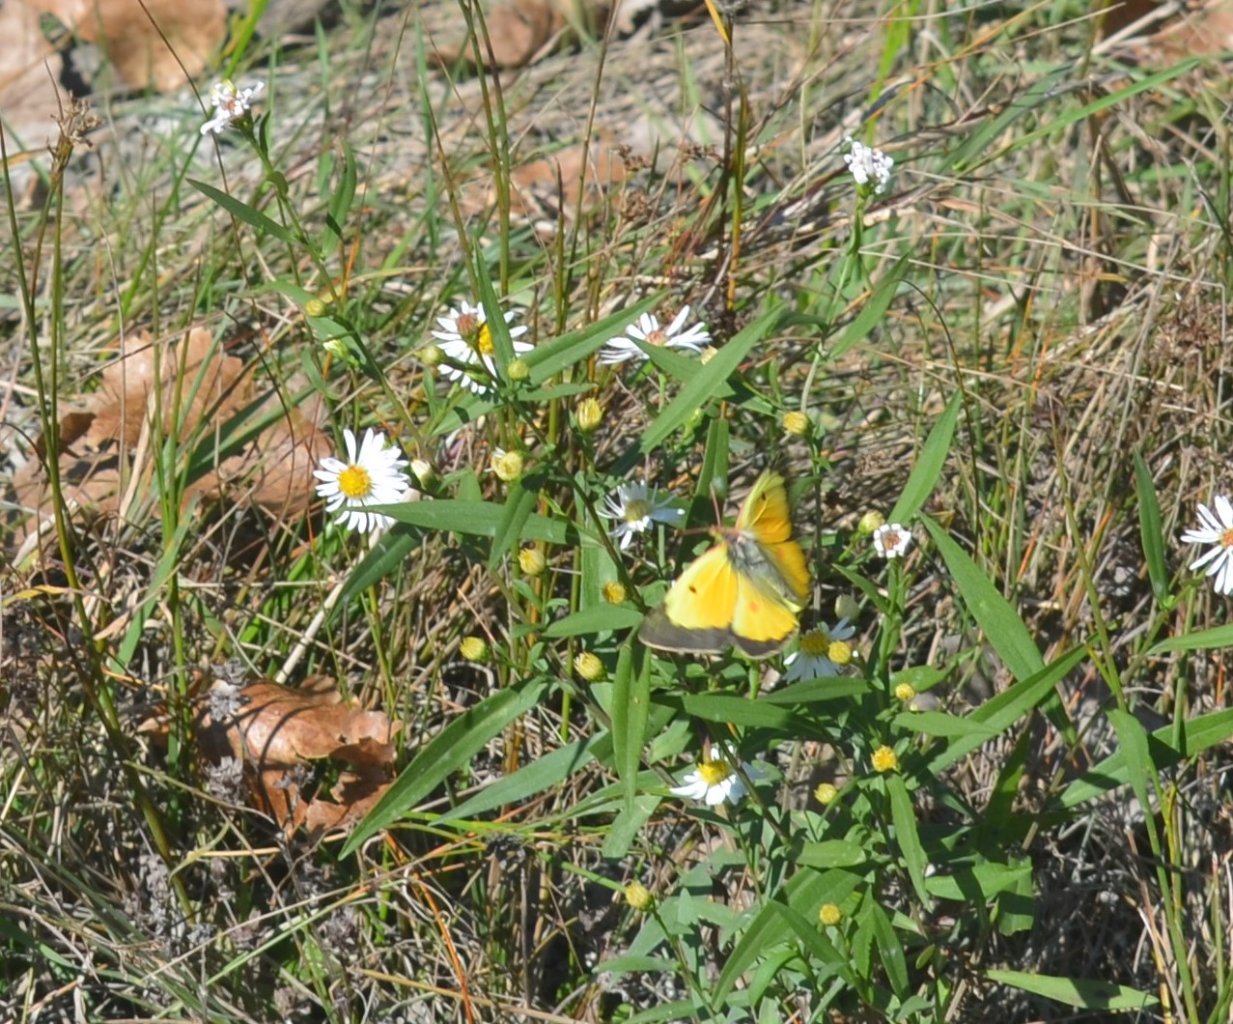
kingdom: Animalia
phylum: Arthropoda
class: Insecta
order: Lepidoptera
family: Pieridae
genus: Colias
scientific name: Colias eurytheme
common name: Orange Sulphur
